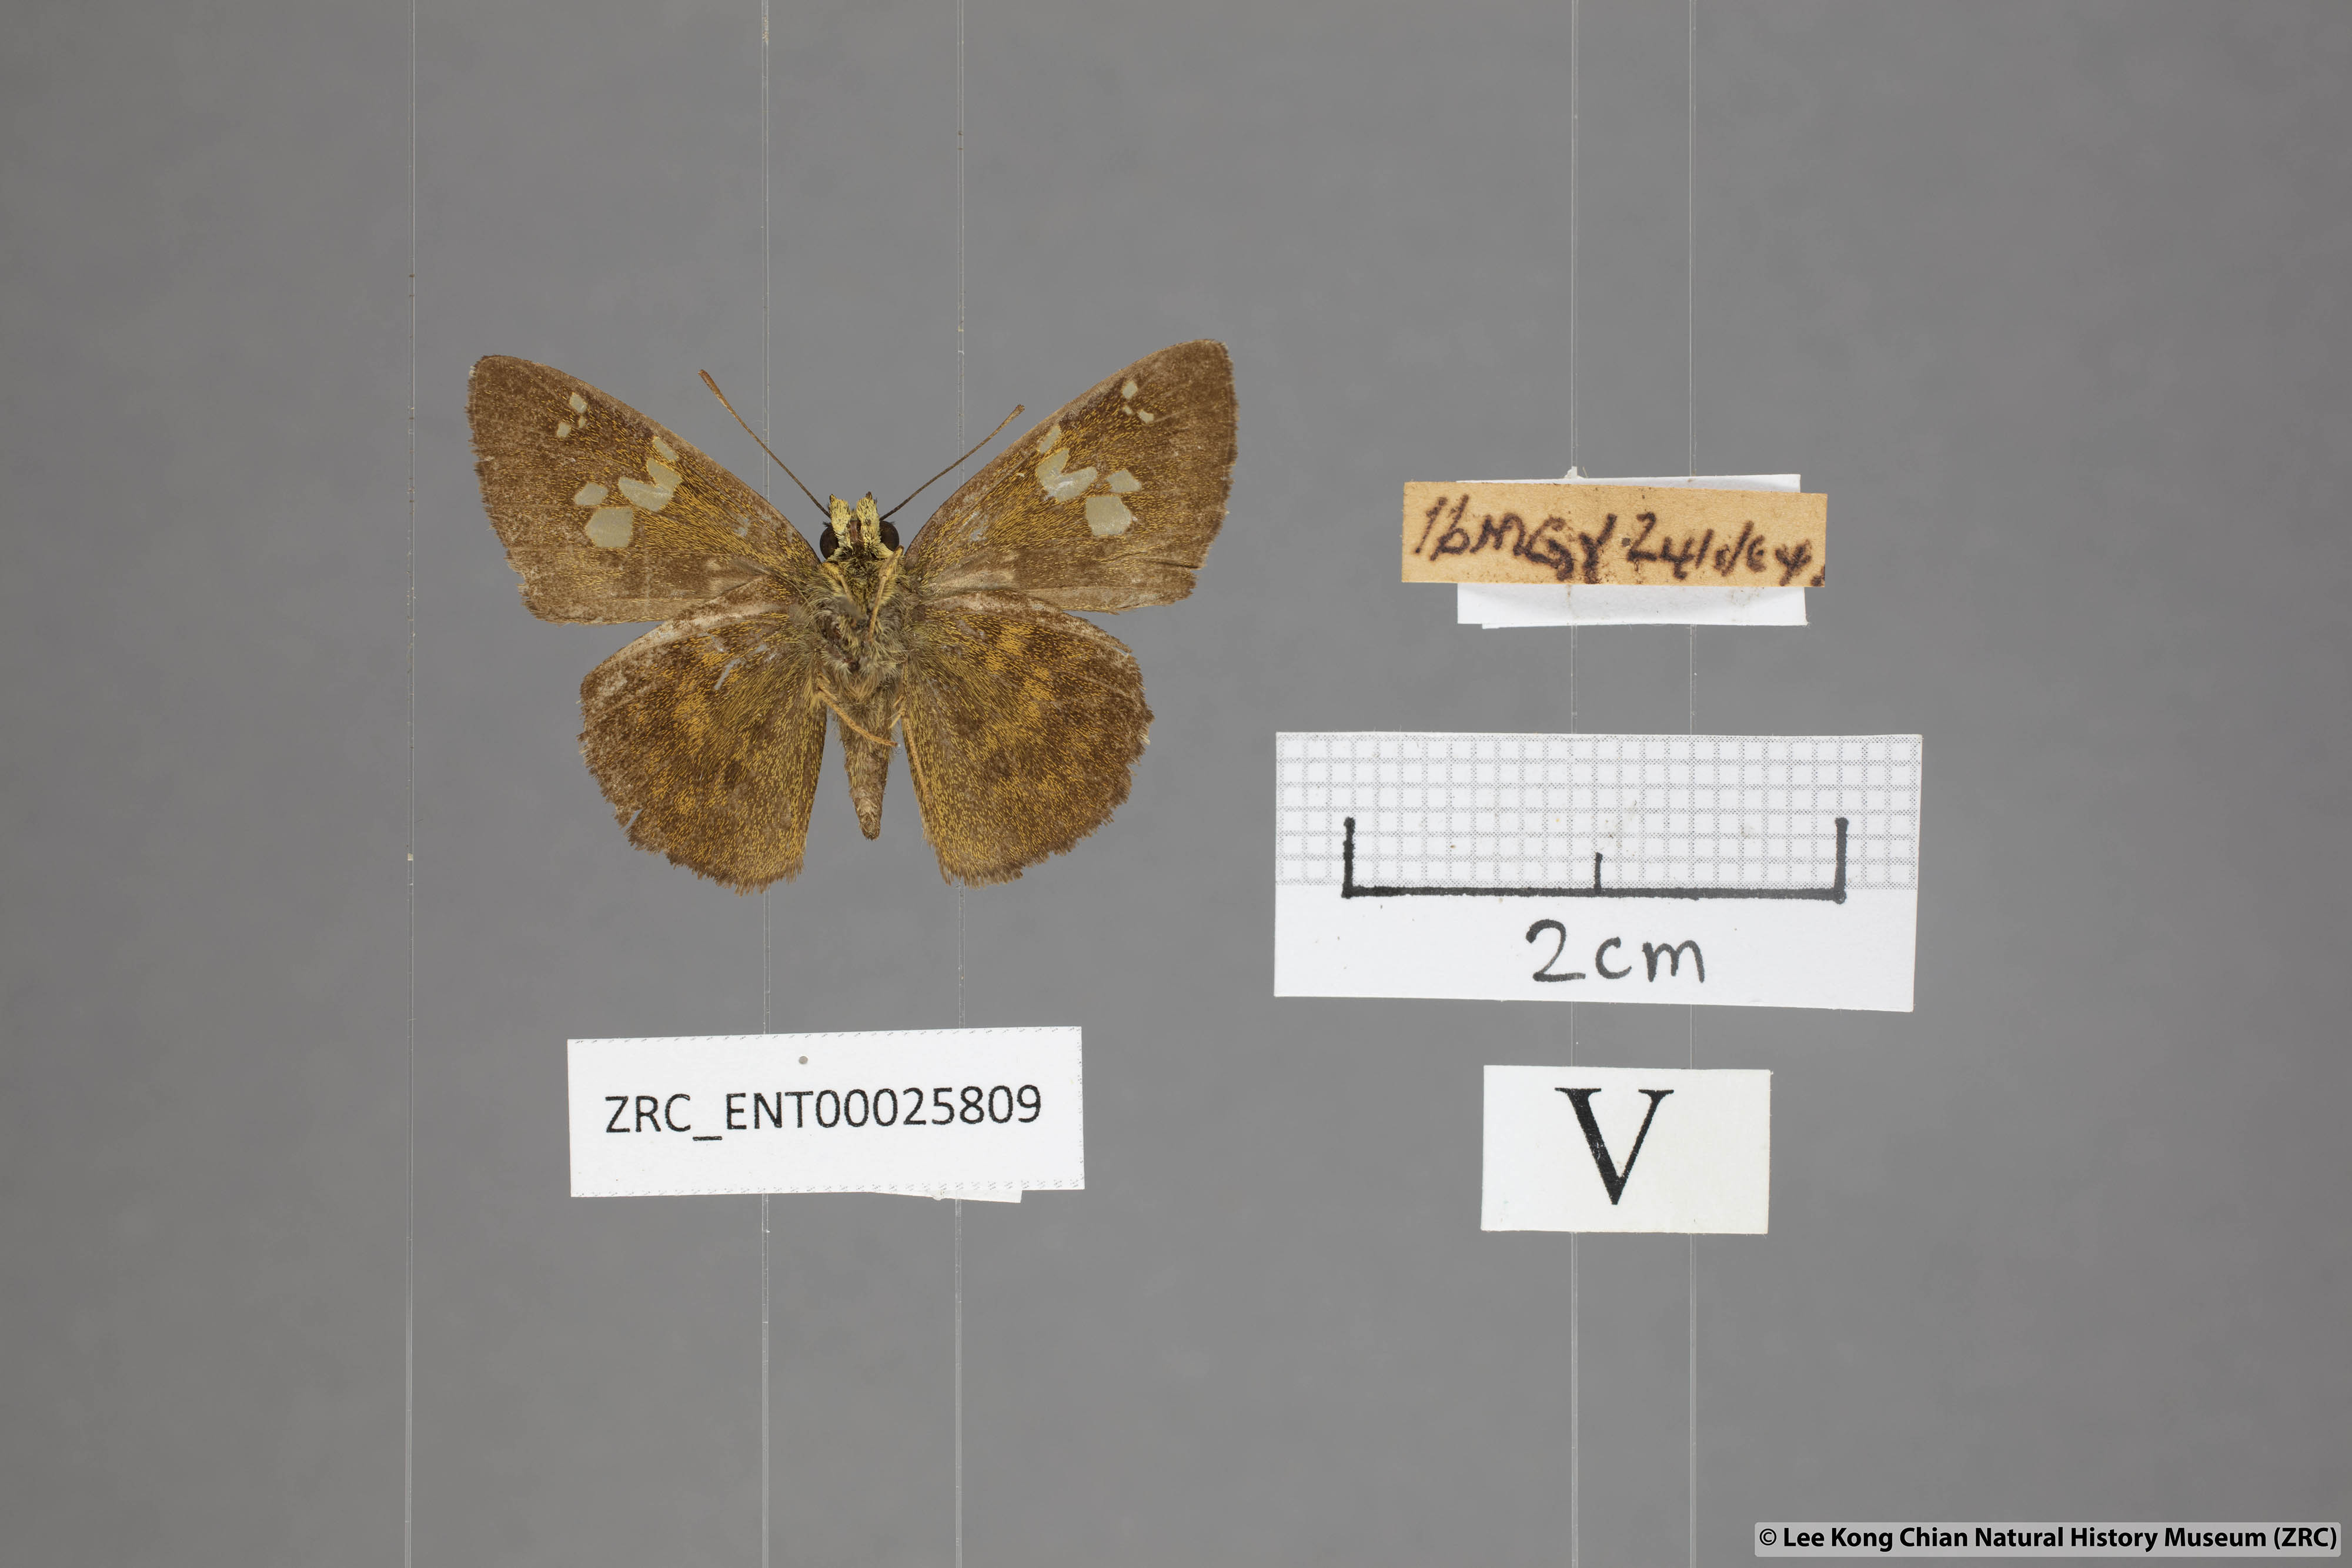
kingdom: Animalia
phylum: Arthropoda
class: Insecta
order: Lepidoptera
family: Hesperiidae
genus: Pseudocoladenia
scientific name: Pseudocoladenia dan
